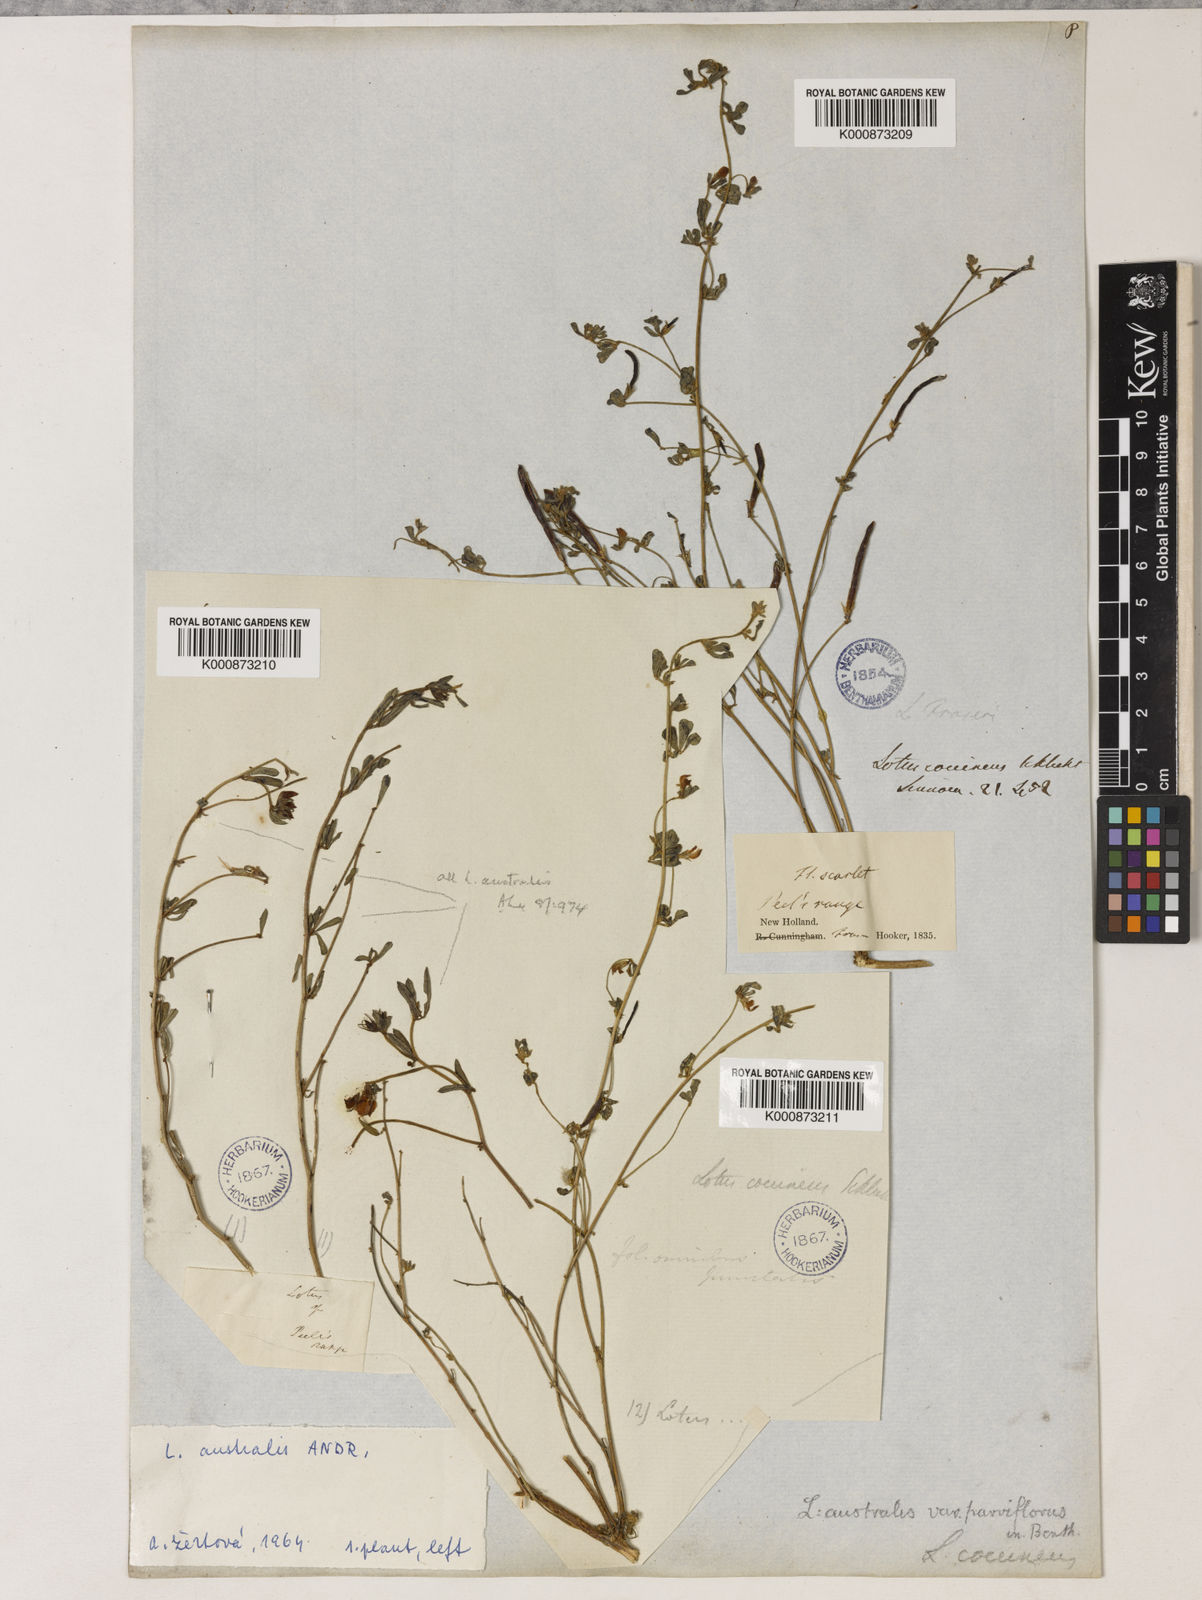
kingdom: Plantae
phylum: Tracheophyta
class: Magnoliopsida
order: Fabales
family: Fabaceae
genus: Lotus
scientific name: Lotus cruentus
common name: Red bird's-foot trefoil
